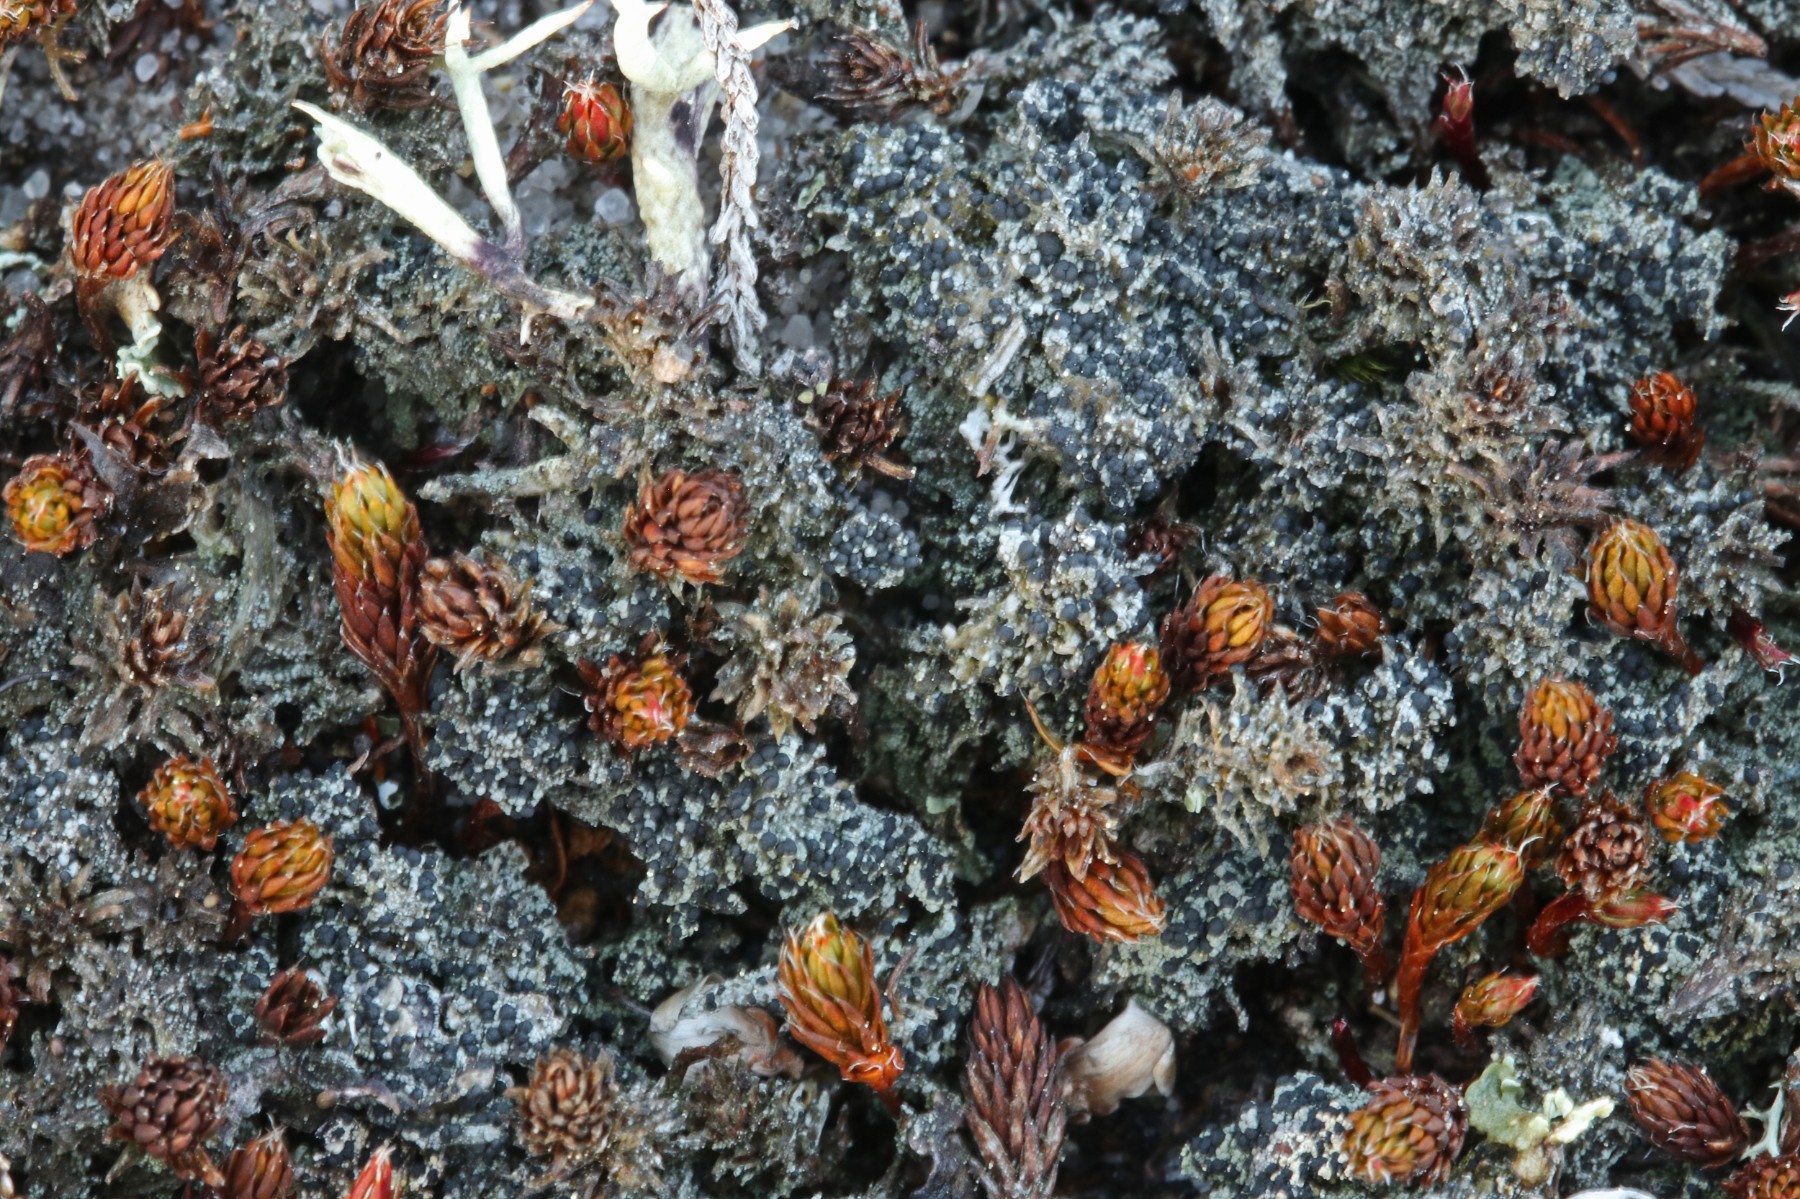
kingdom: Fungi
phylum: Ascomycota
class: Lecanoromycetes
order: Lecanorales
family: Byssolomataceae
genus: Micarea
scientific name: Micarea lignaria
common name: tørve-knaplav
